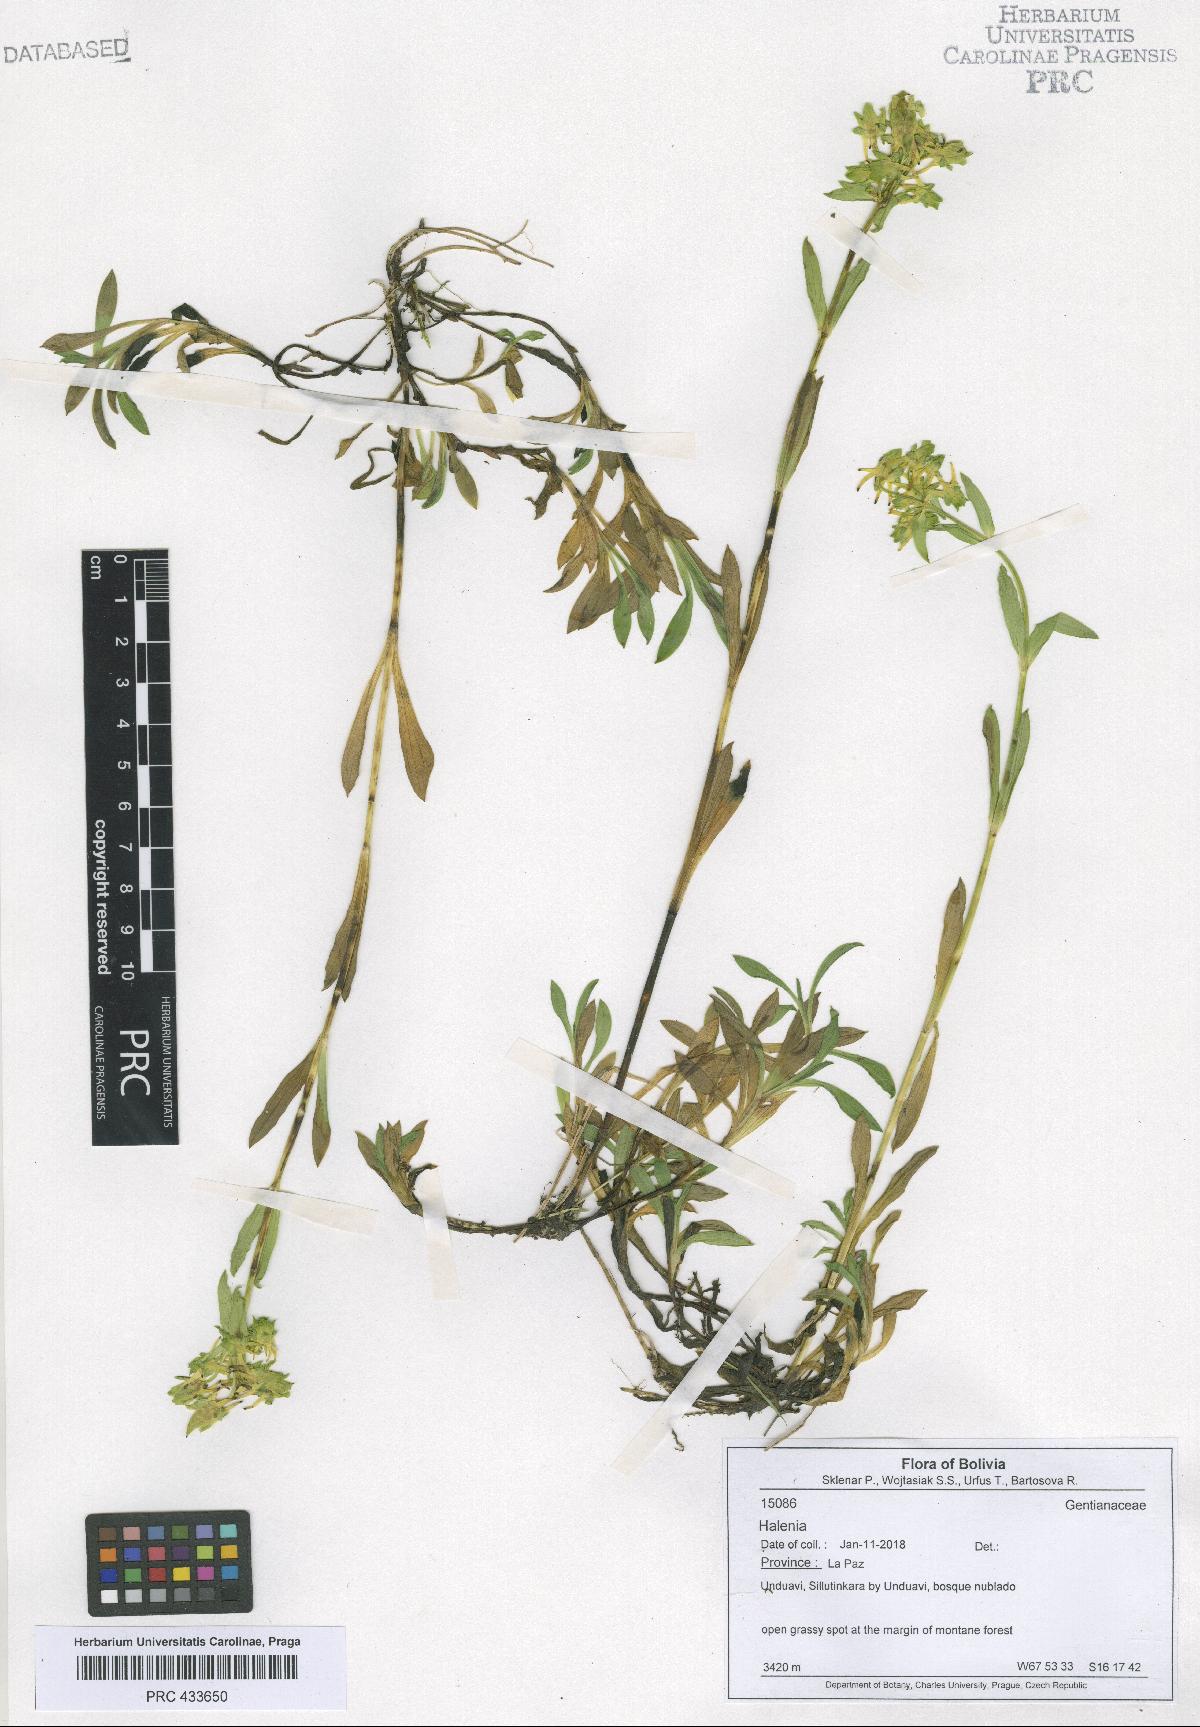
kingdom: Plantae
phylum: Tracheophyta
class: Magnoliopsida
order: Gentianales
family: Gentianaceae
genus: Halenia
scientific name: Halenia
